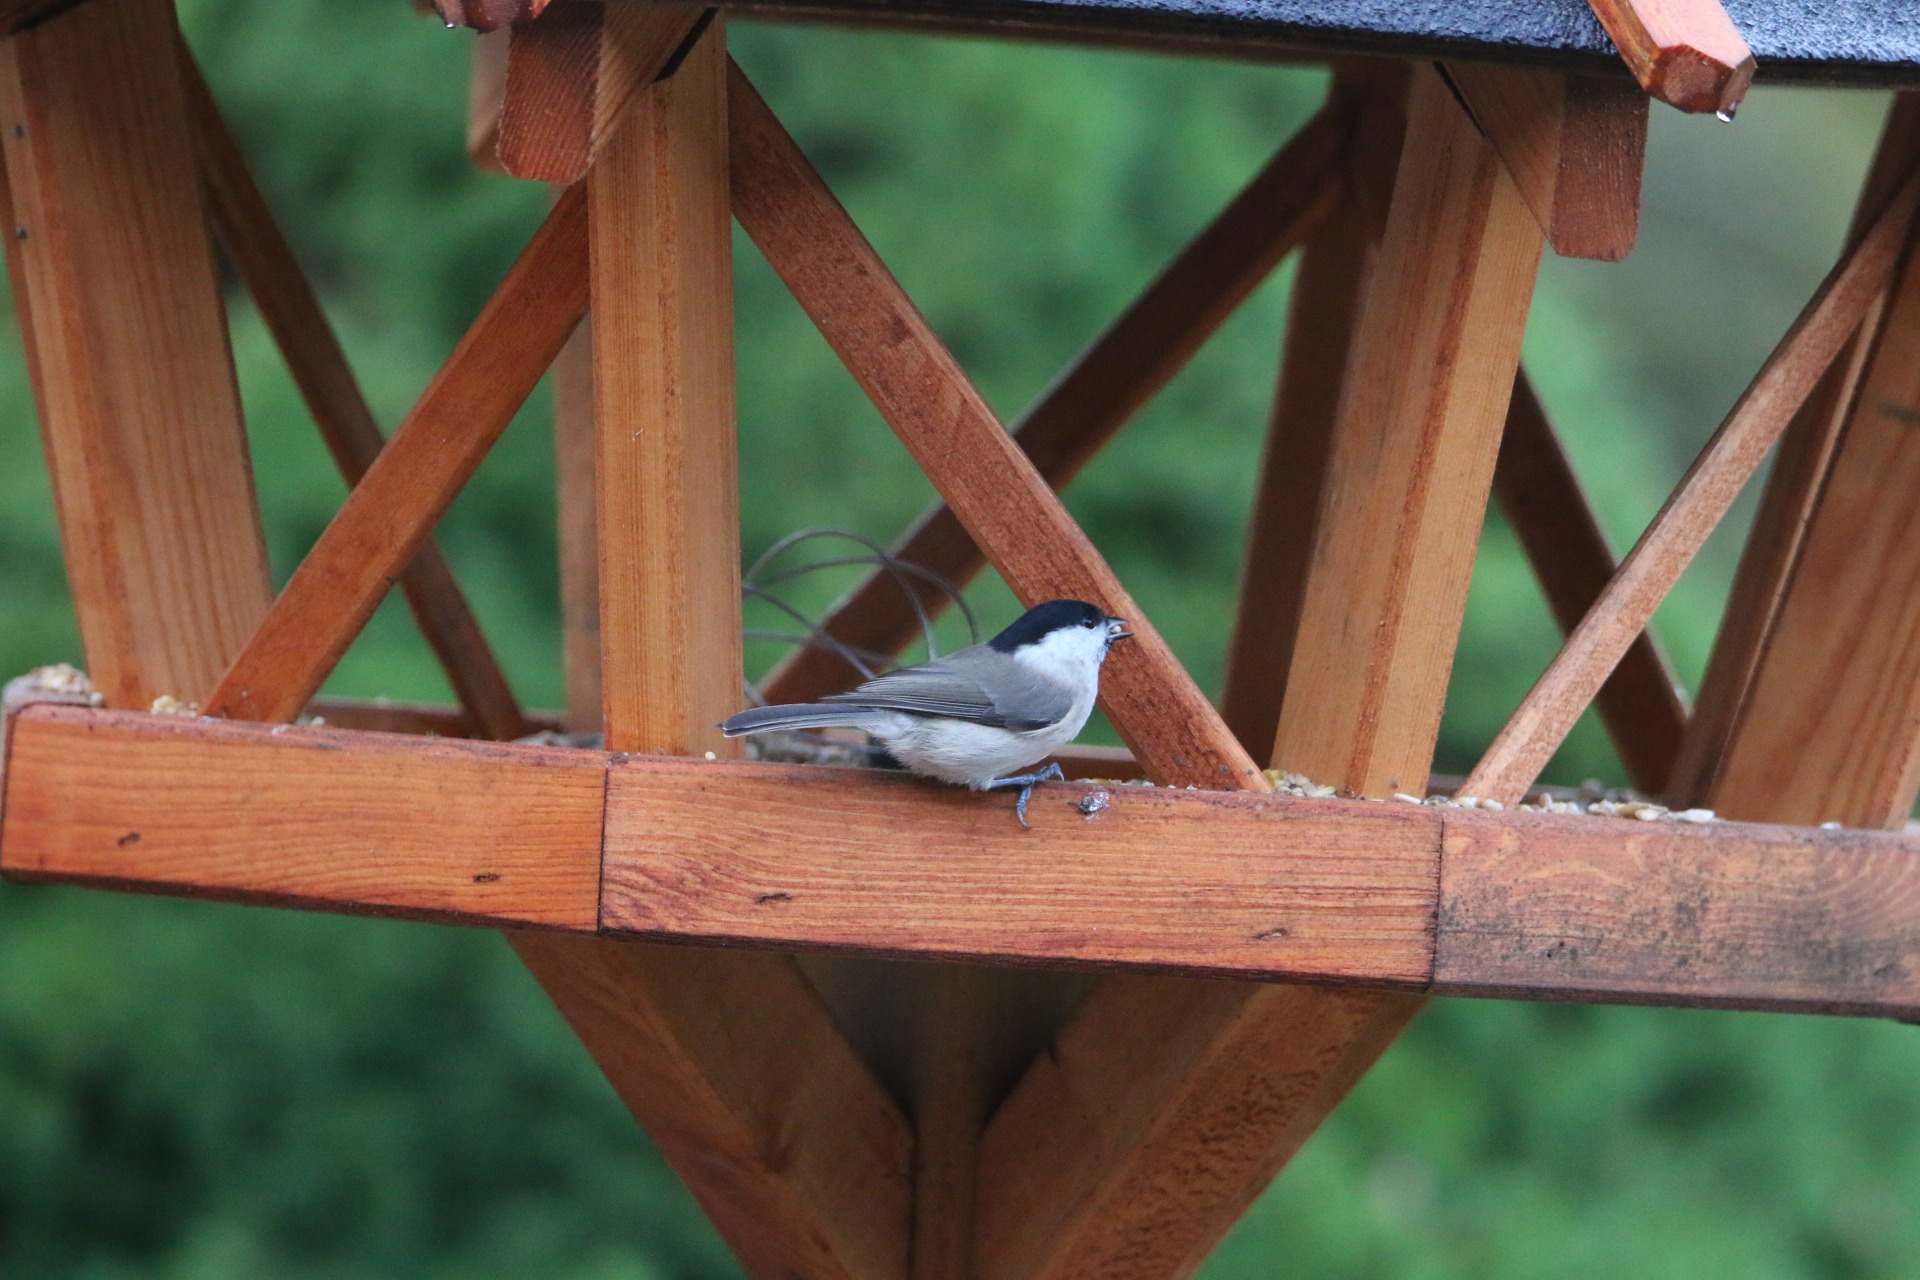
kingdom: Animalia
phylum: Chordata
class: Aves
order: Passeriformes
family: Paridae
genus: Poecile
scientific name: Poecile palustris
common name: Sumpmejse
